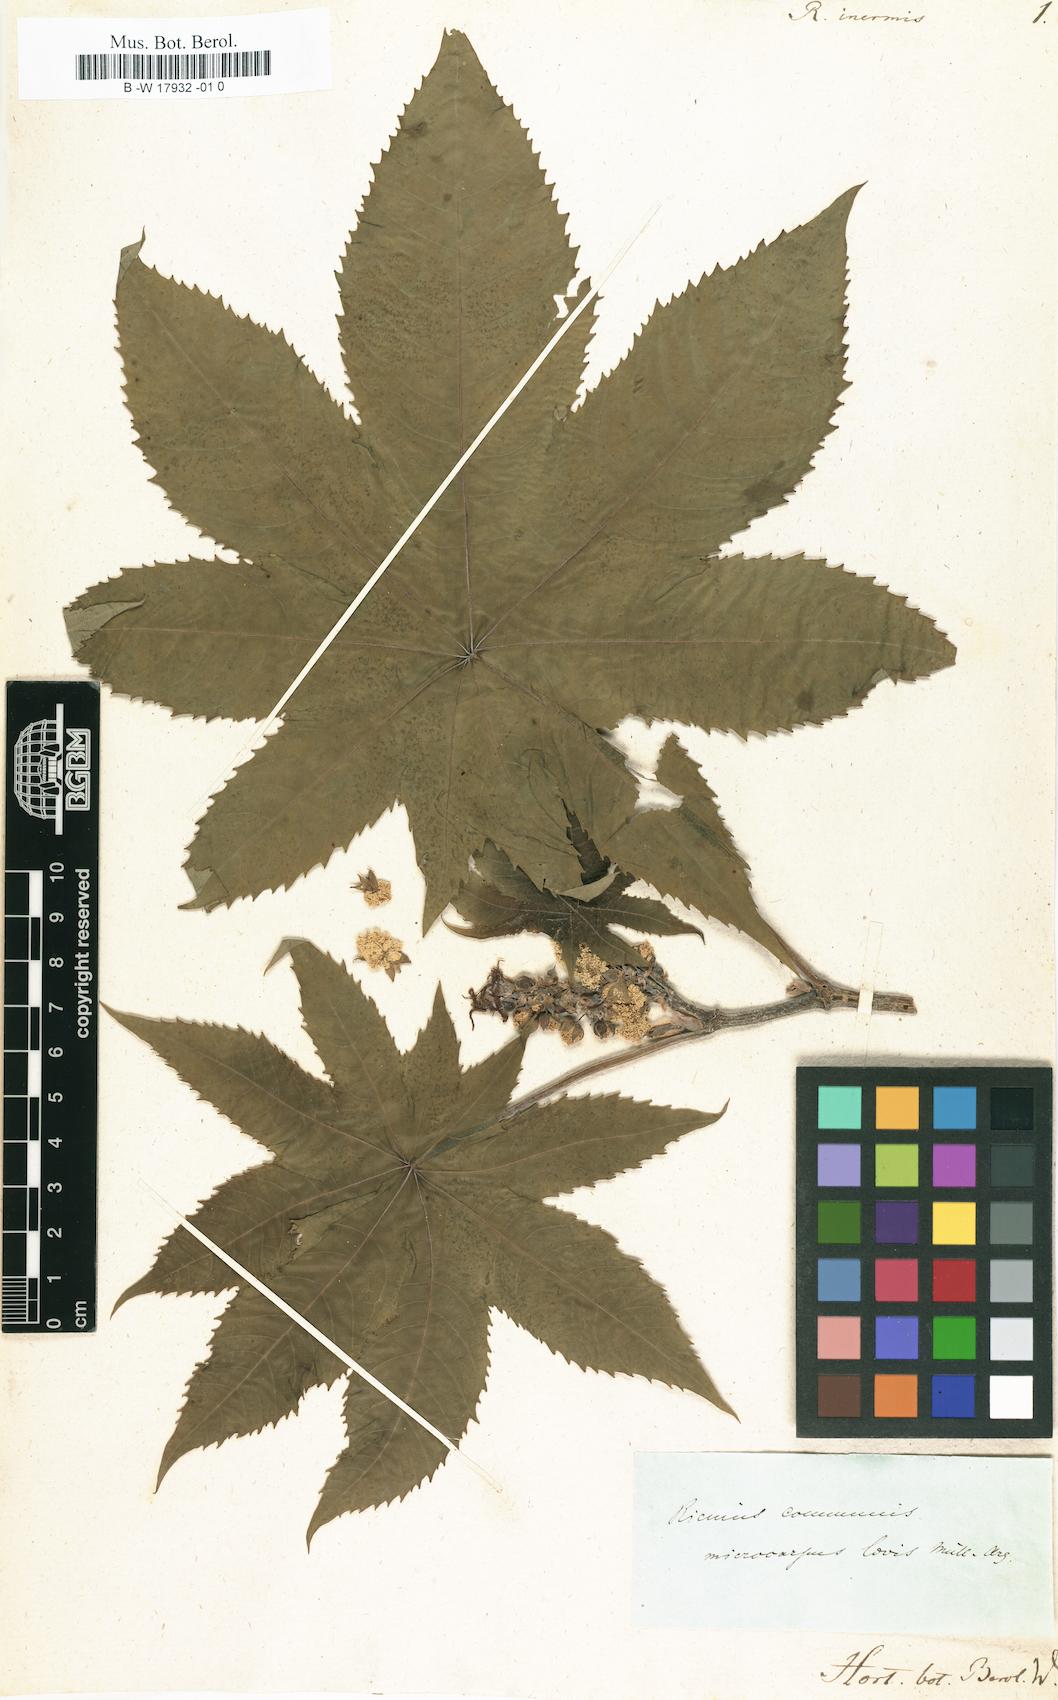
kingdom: Plantae
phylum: Tracheophyta
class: Magnoliopsida
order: Malpighiales
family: Euphorbiaceae
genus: Ricinus
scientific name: Ricinus communis
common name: Castor-oil-plant
